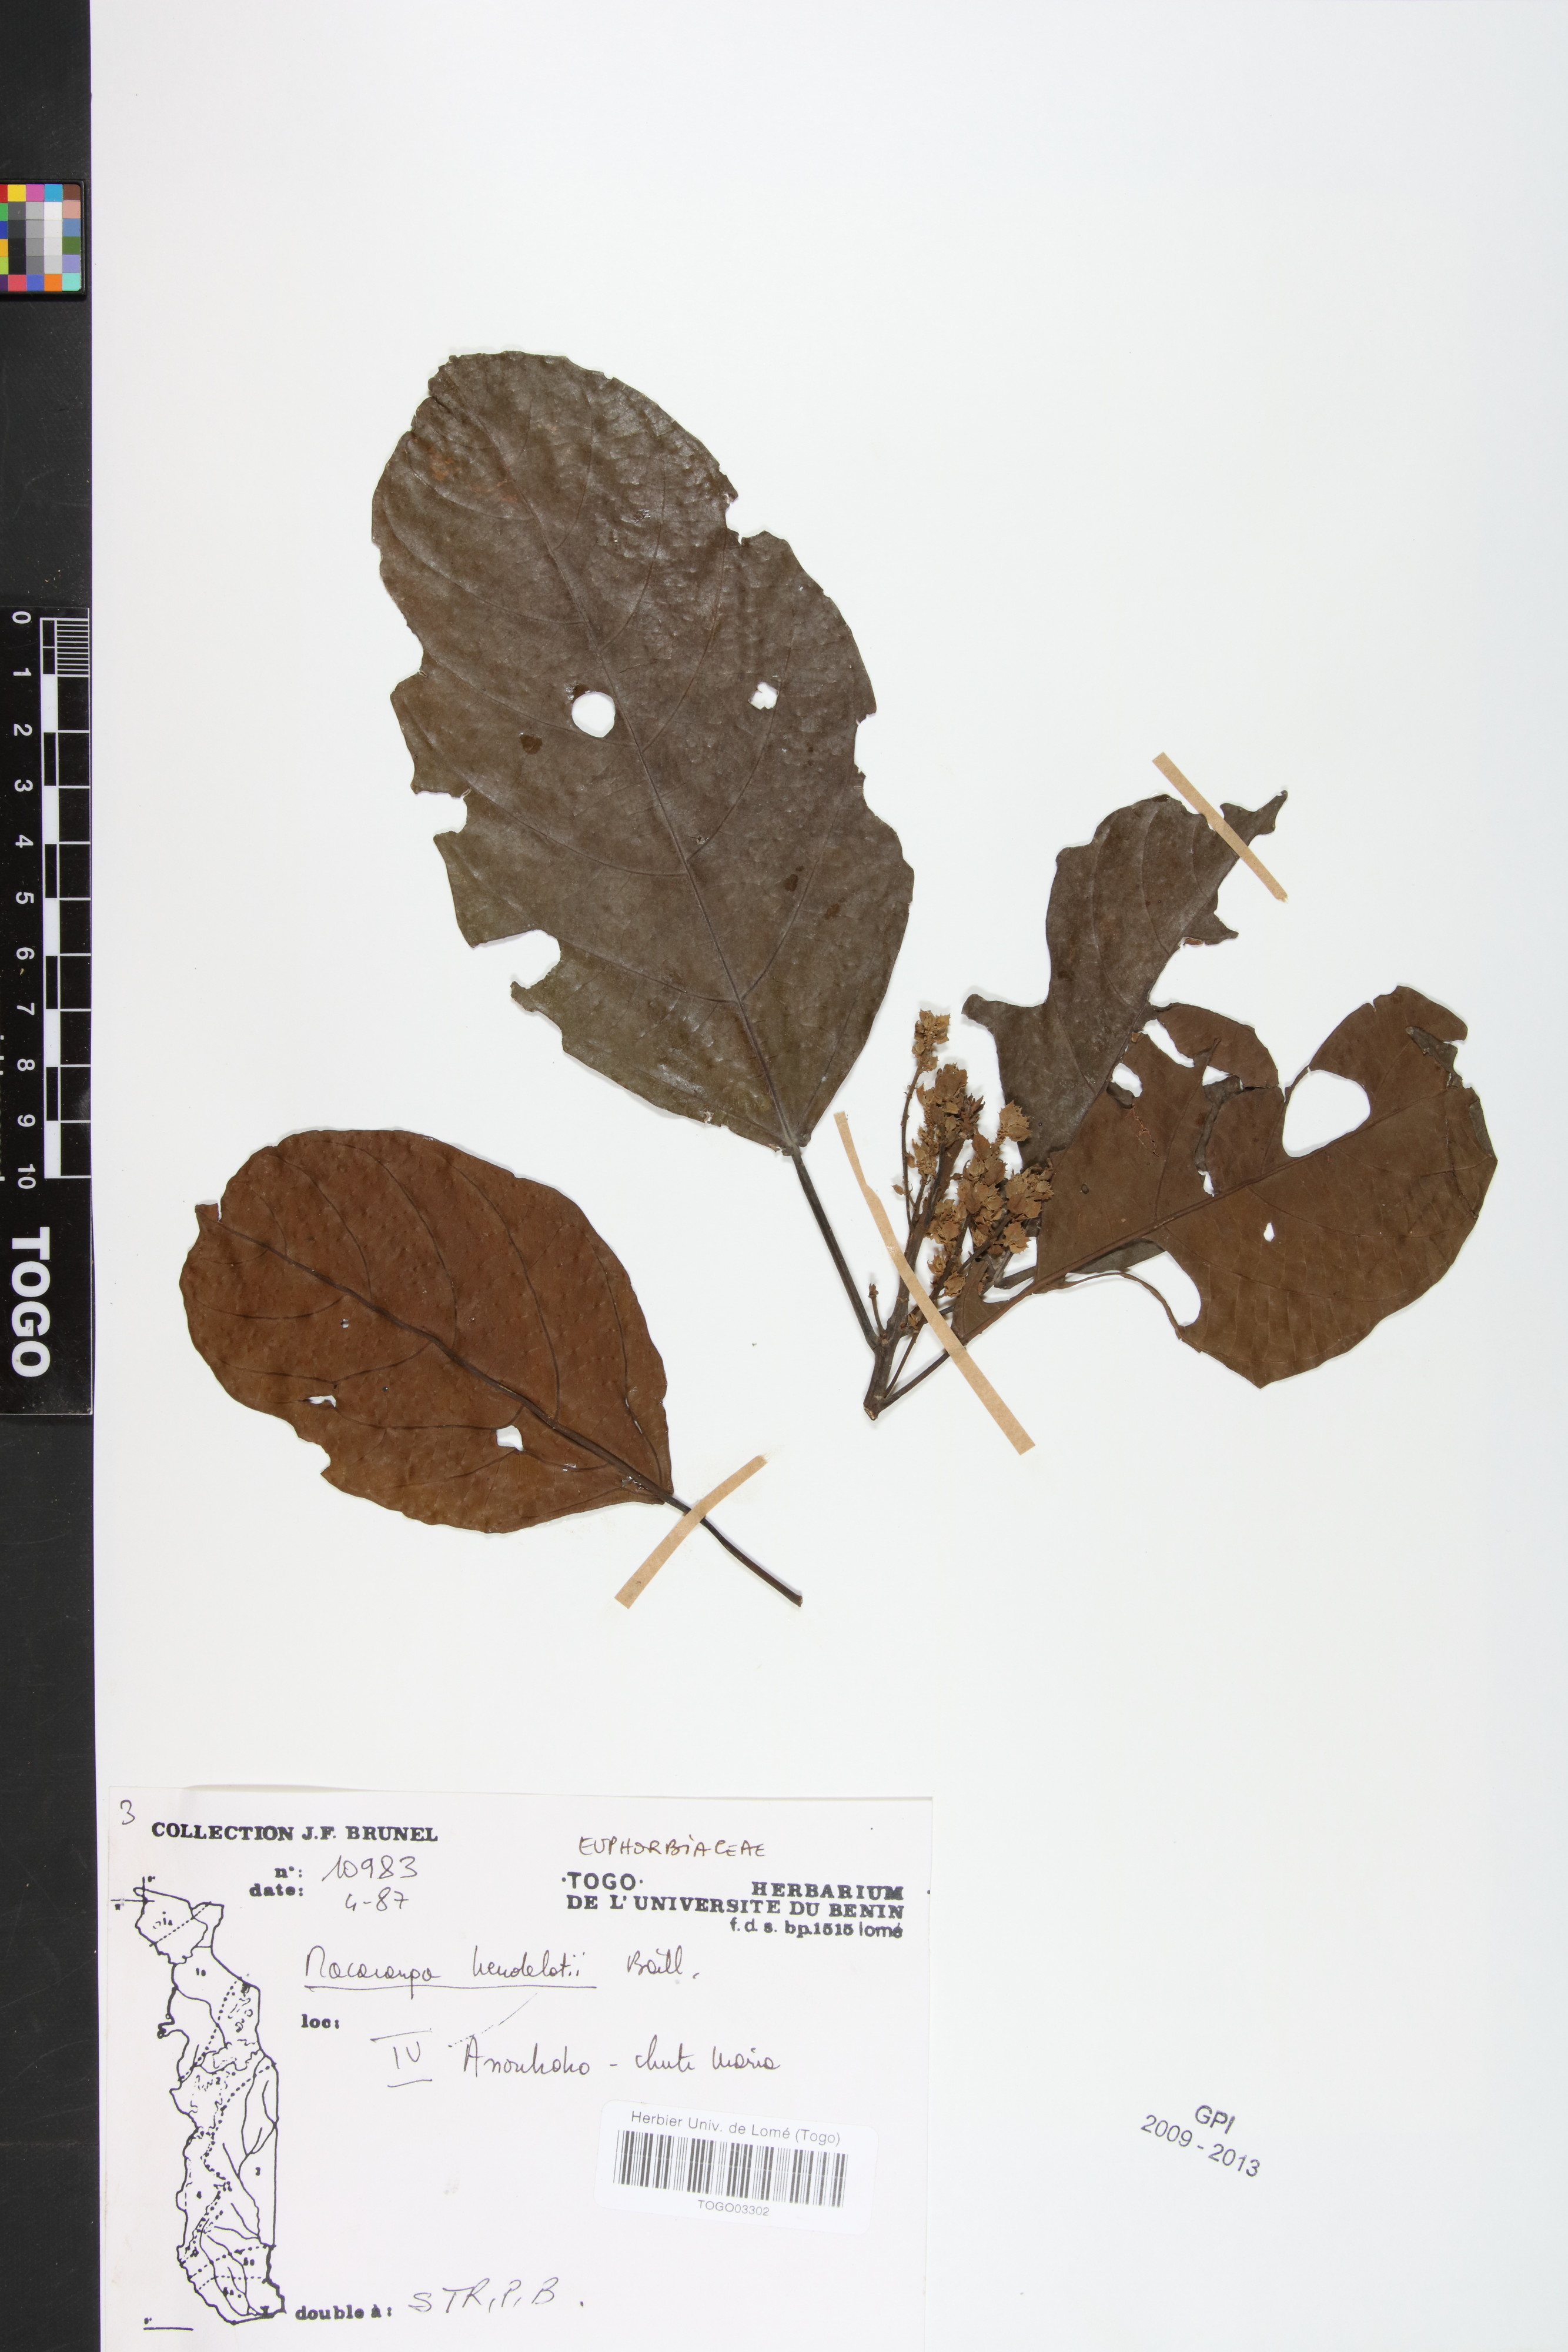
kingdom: Plantae
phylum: Tracheophyta
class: Magnoliopsida
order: Malpighiales
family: Euphorbiaceae
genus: Macaranga
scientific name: Macaranga heudelotii
